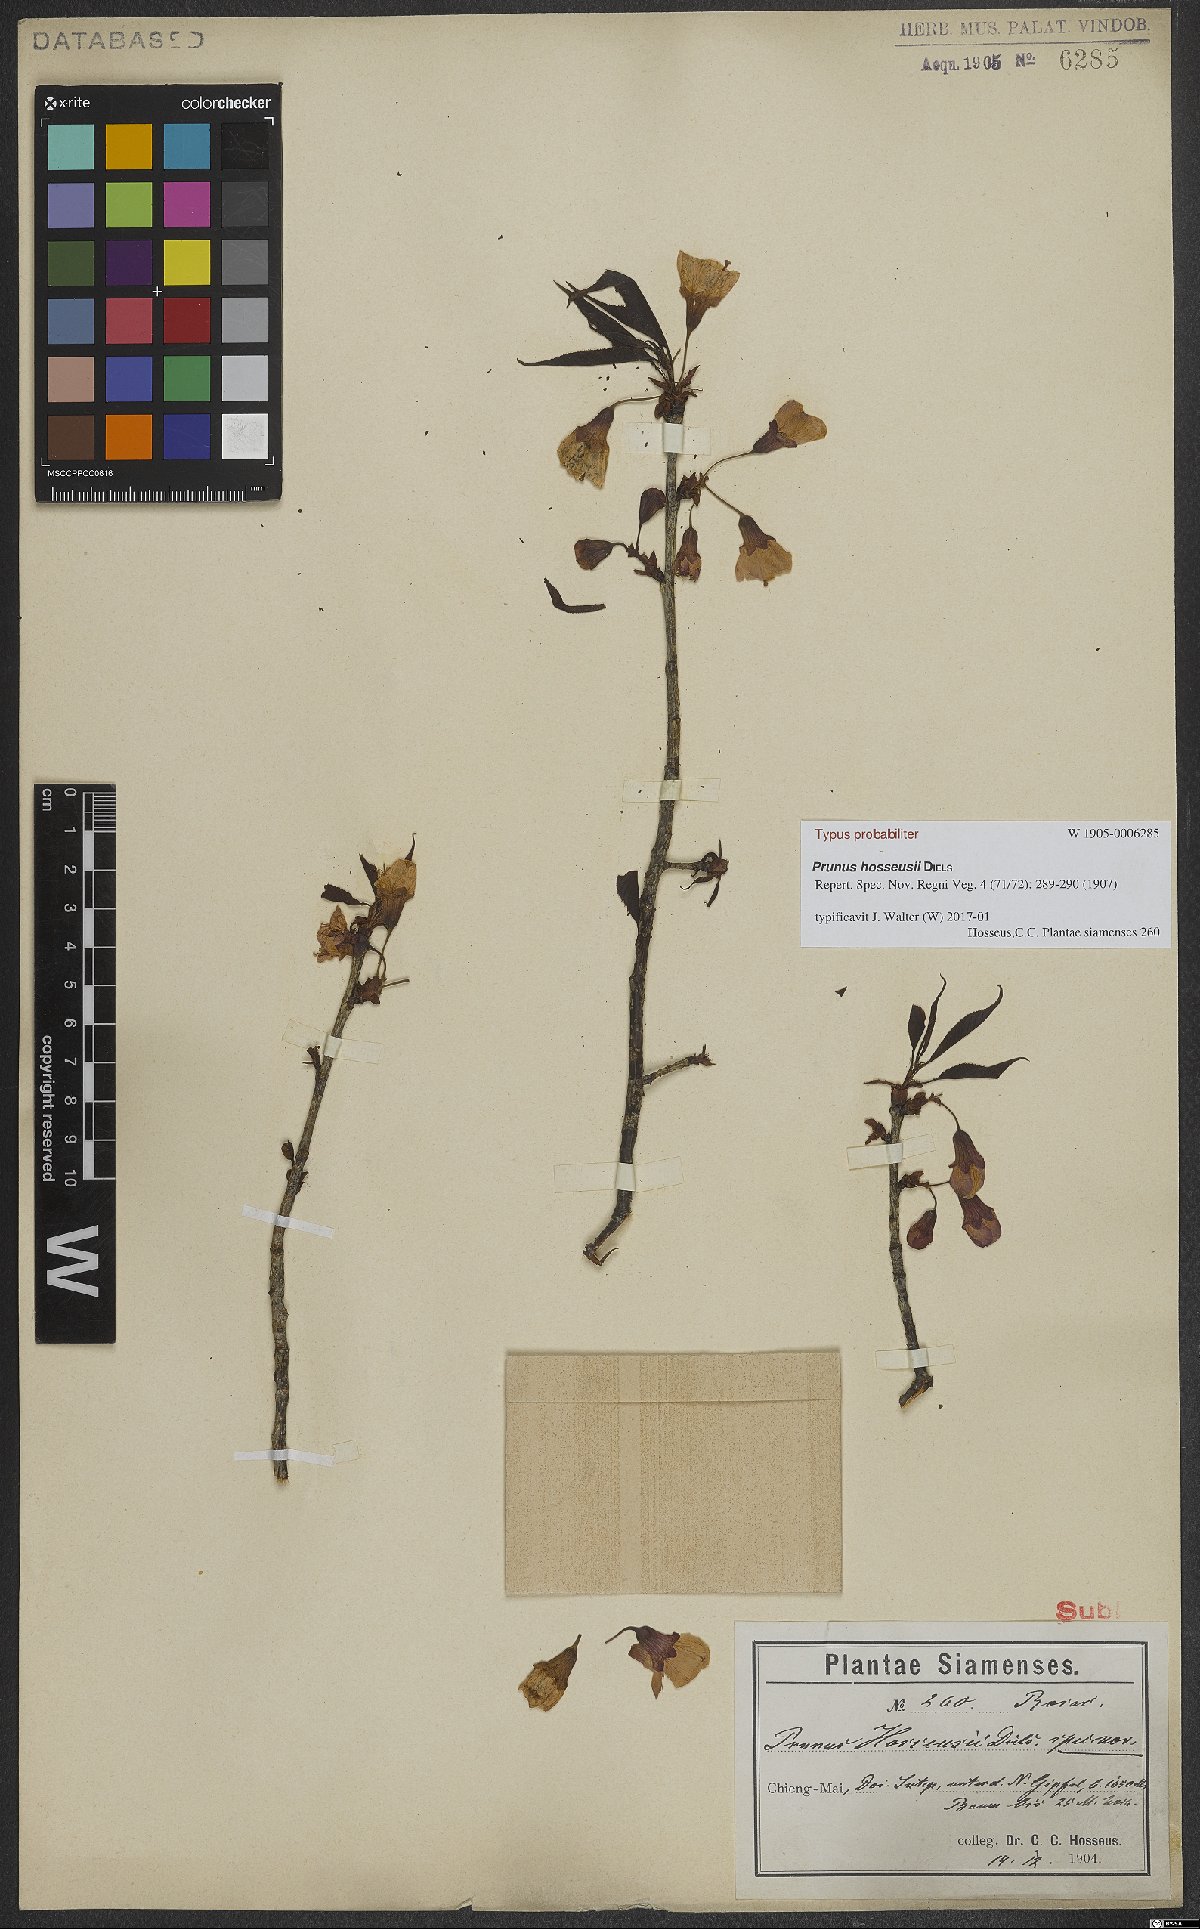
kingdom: Plantae
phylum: Tracheophyta
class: Magnoliopsida
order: Rosales
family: Rosaceae
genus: Prunus
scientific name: Prunus cerasoides
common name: Wild himalayan cherry
